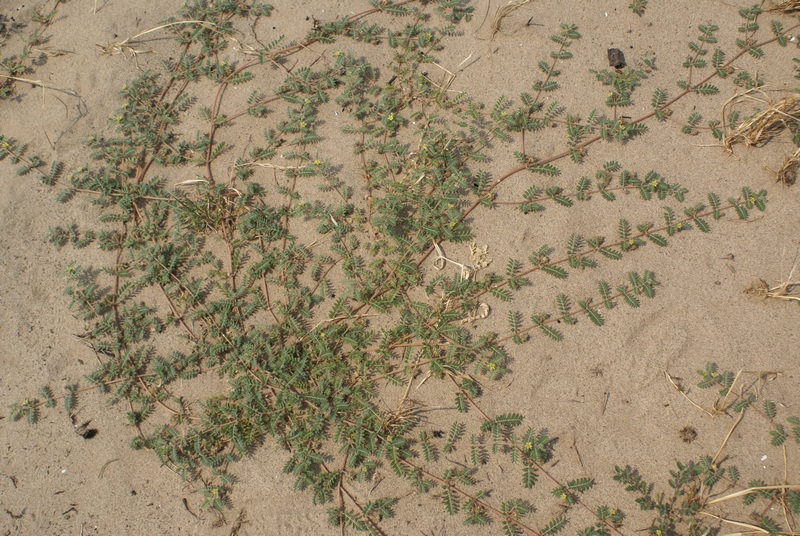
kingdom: Plantae
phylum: Tracheophyta
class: Magnoliopsida
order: Zygophyllales
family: Zygophyllaceae
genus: Tribulus
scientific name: Tribulus terrestris
